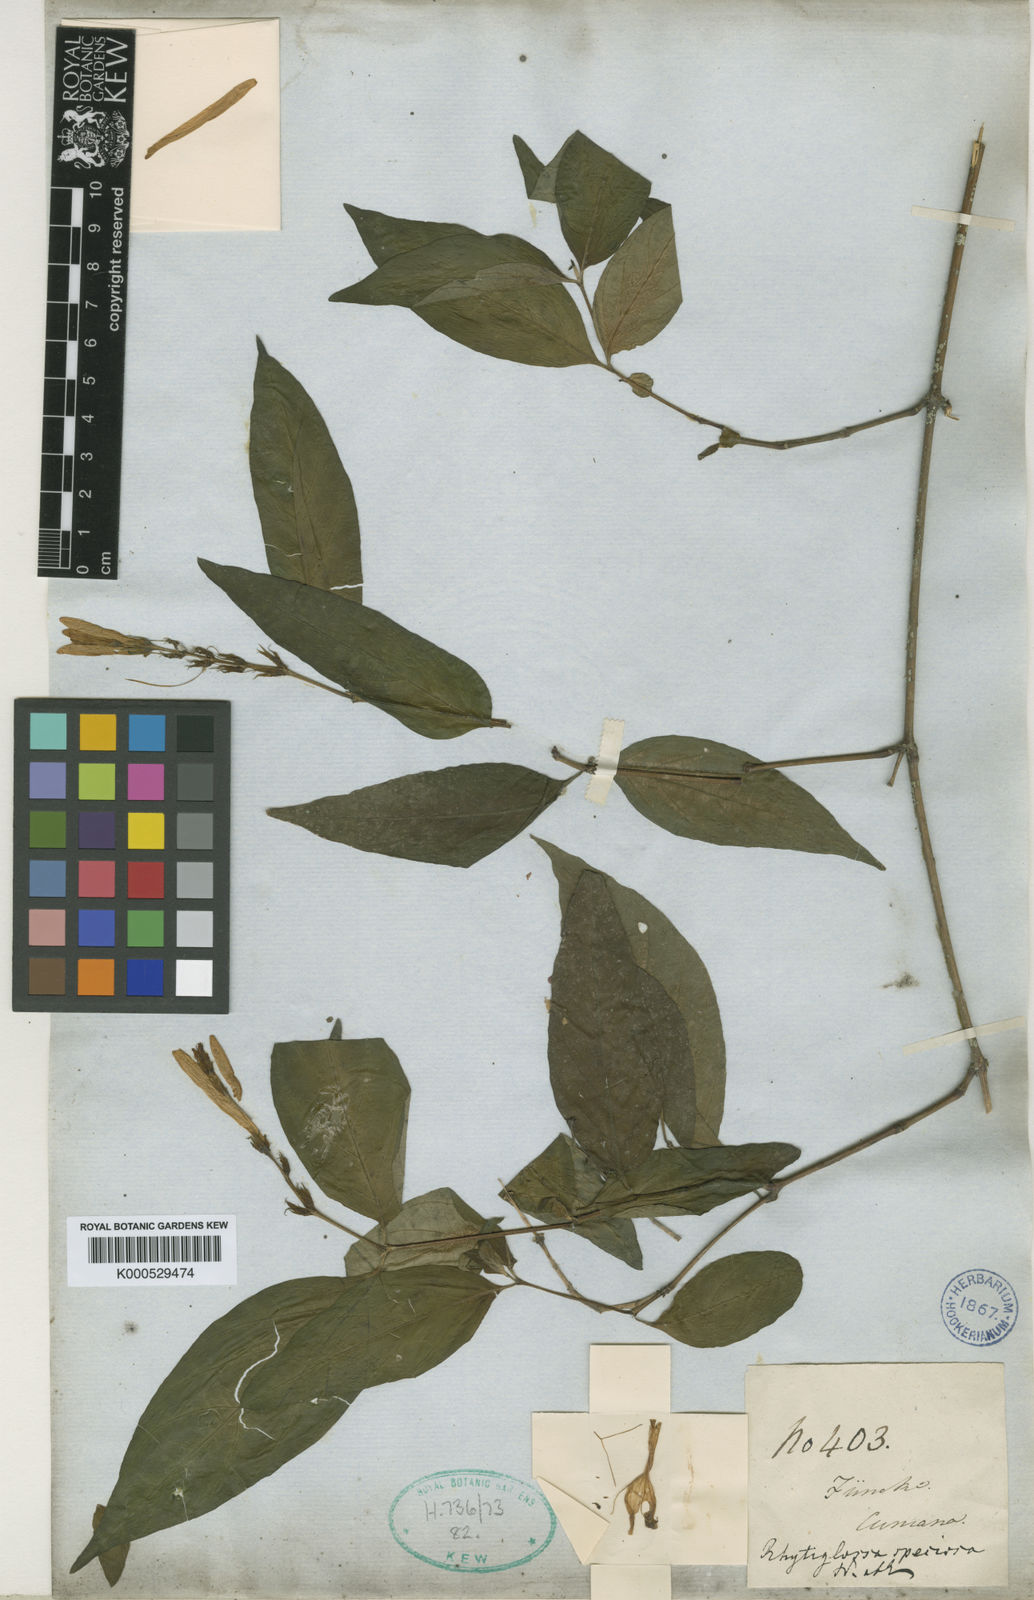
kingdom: Plantae
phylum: Tracheophyta
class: Magnoliopsida
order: Lamiales
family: Acanthaceae
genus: Justicia
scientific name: Justicia
